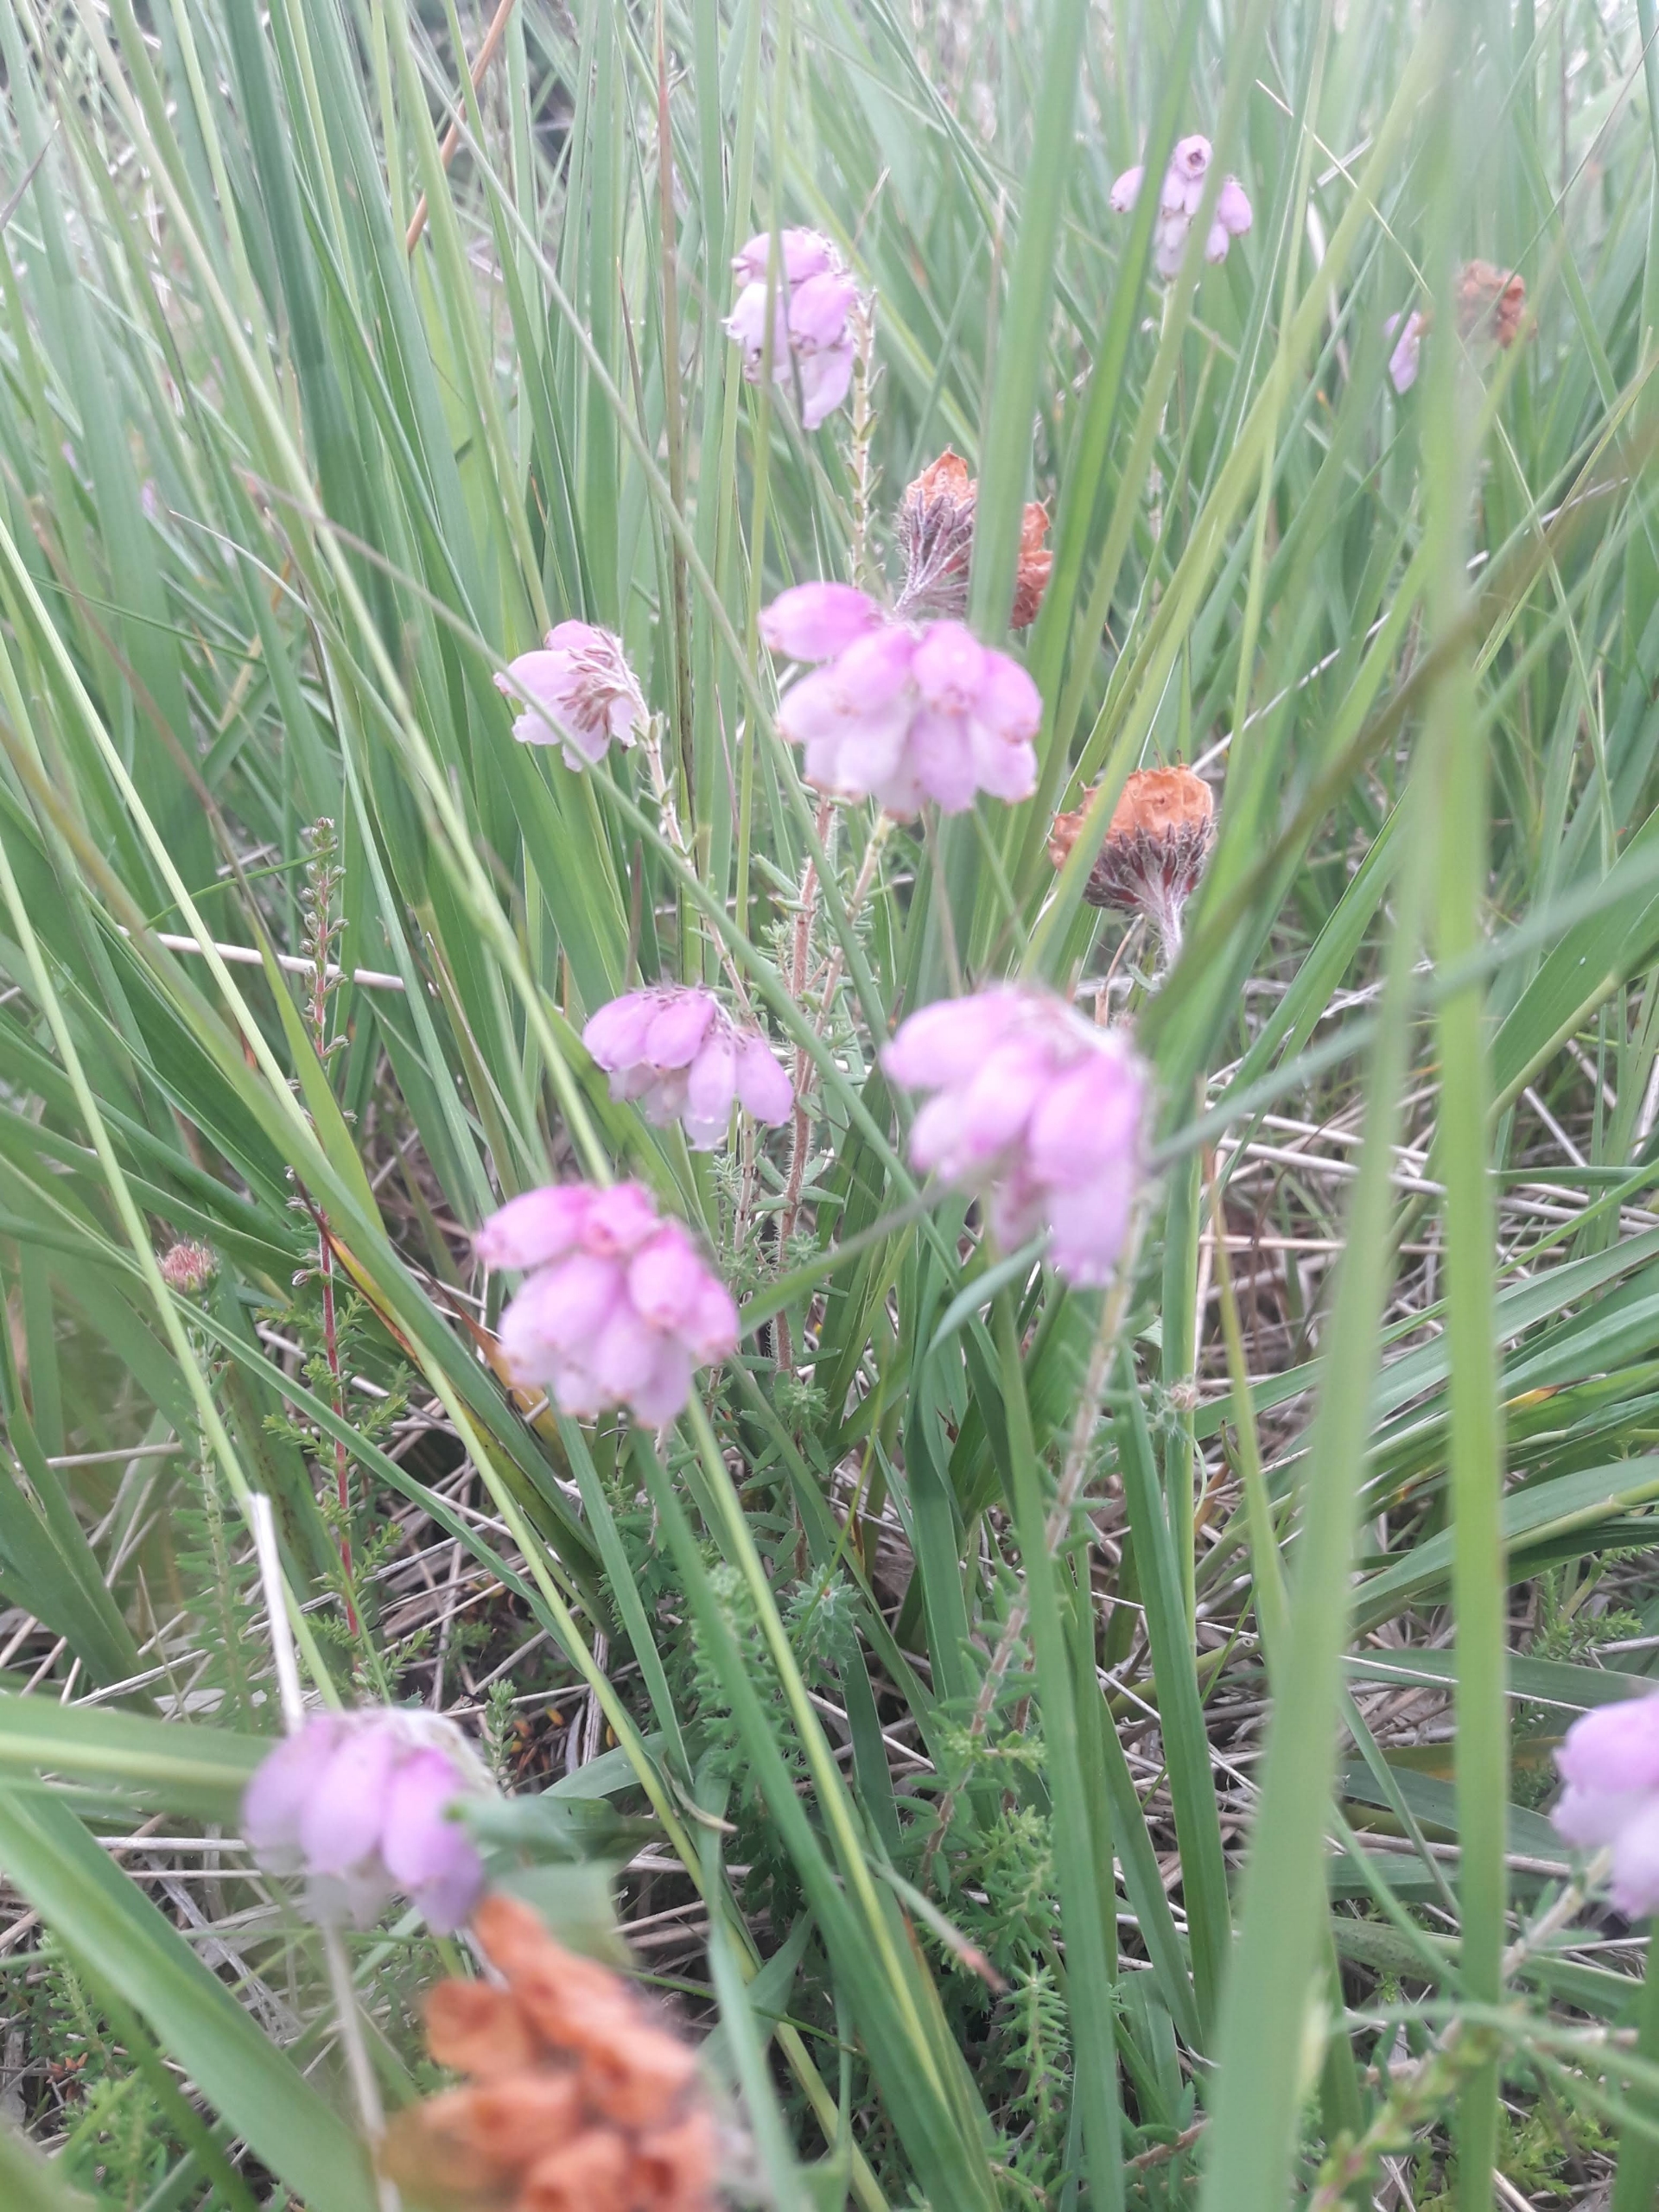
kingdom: Plantae
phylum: Tracheophyta
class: Magnoliopsida
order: Ericales
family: Ericaceae
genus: Erica
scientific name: Erica tetralix
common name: Klokkelyng
